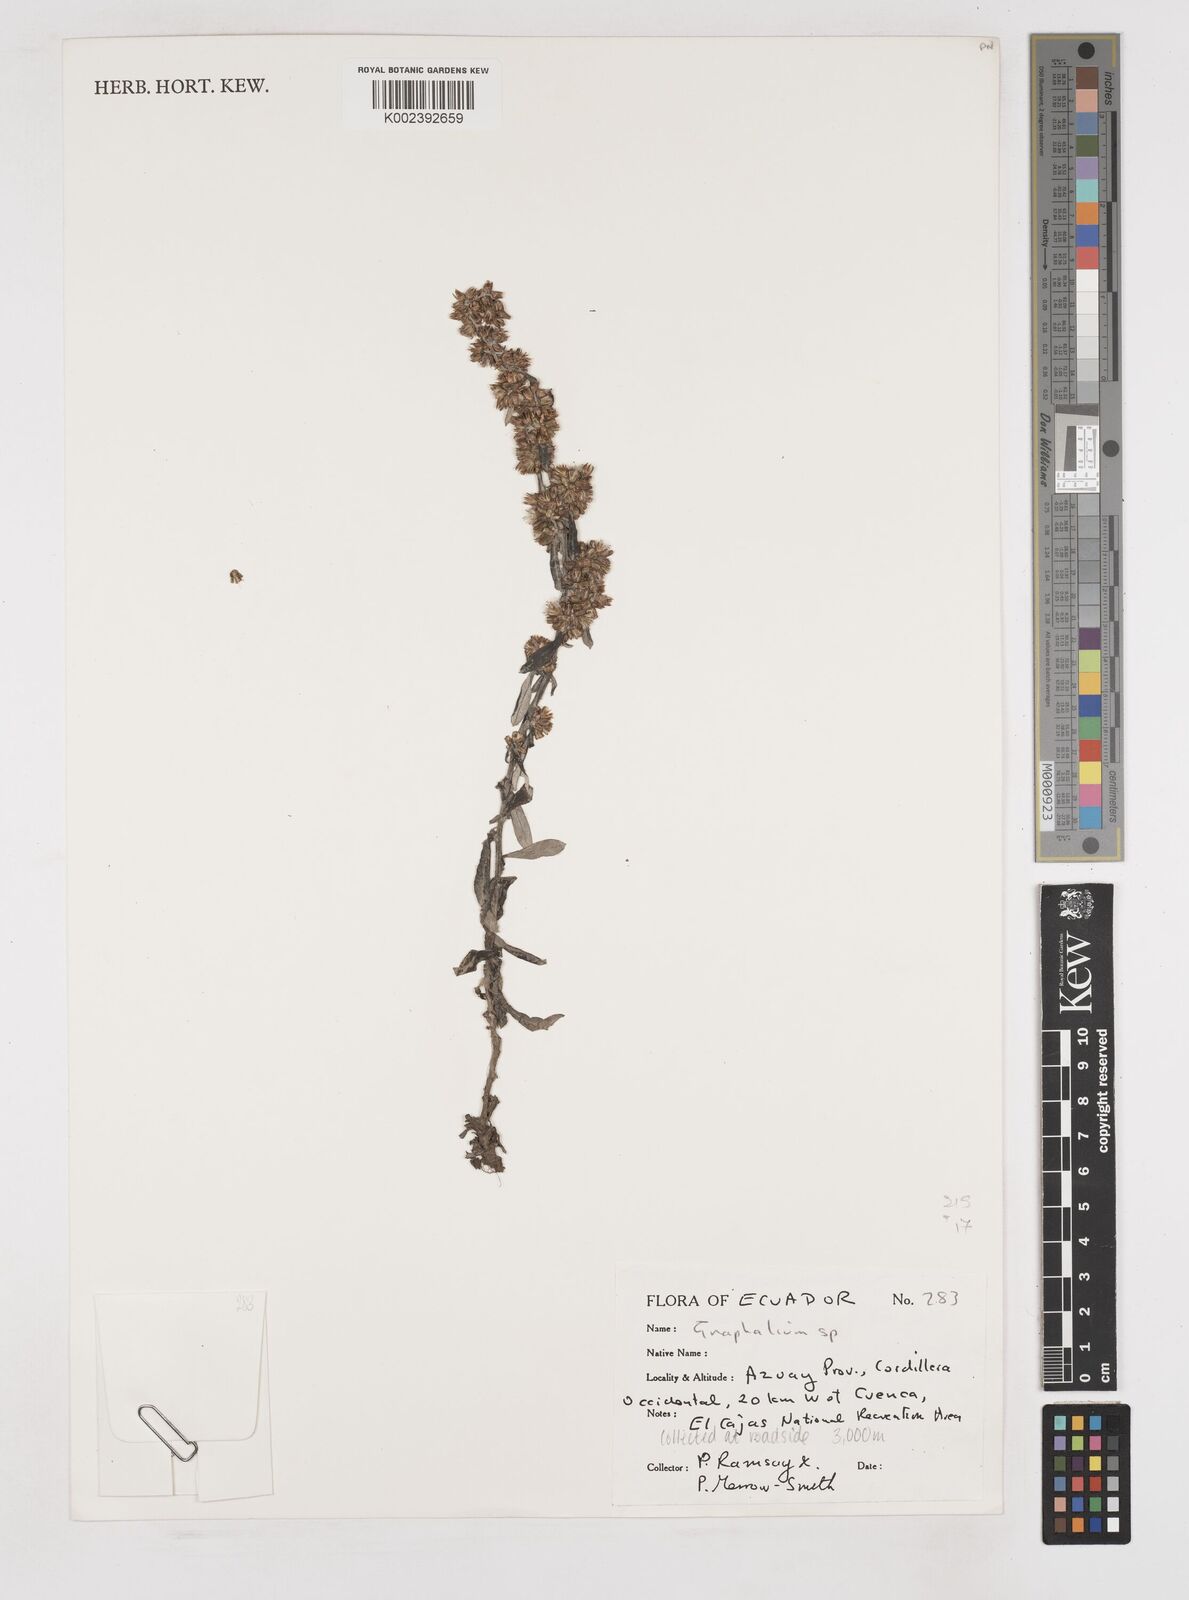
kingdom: Plantae
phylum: Tracheophyta
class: Magnoliopsida
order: Asterales
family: Asteraceae
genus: Gnaphalium
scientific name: Gnaphalium
